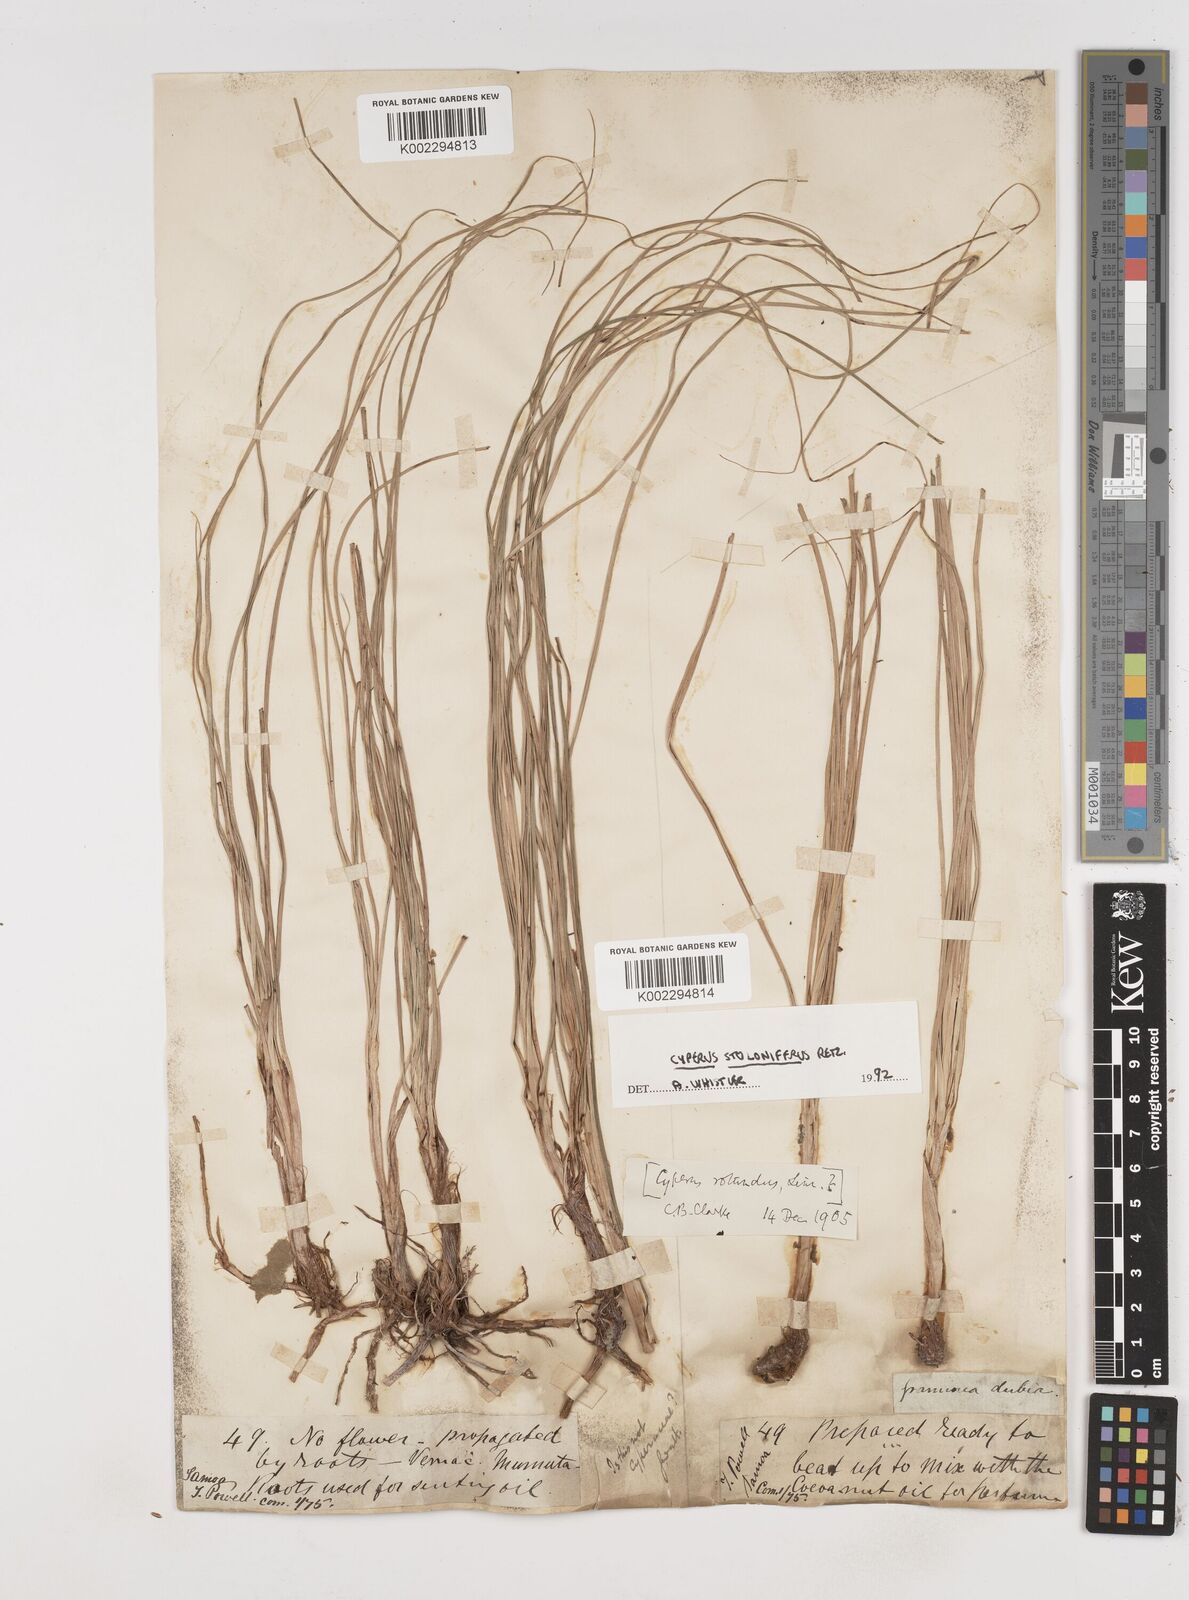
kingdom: Plantae
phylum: Tracheophyta
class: Liliopsida
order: Poales
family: Cyperaceae
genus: Cyperus
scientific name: Cyperus stolonifer
